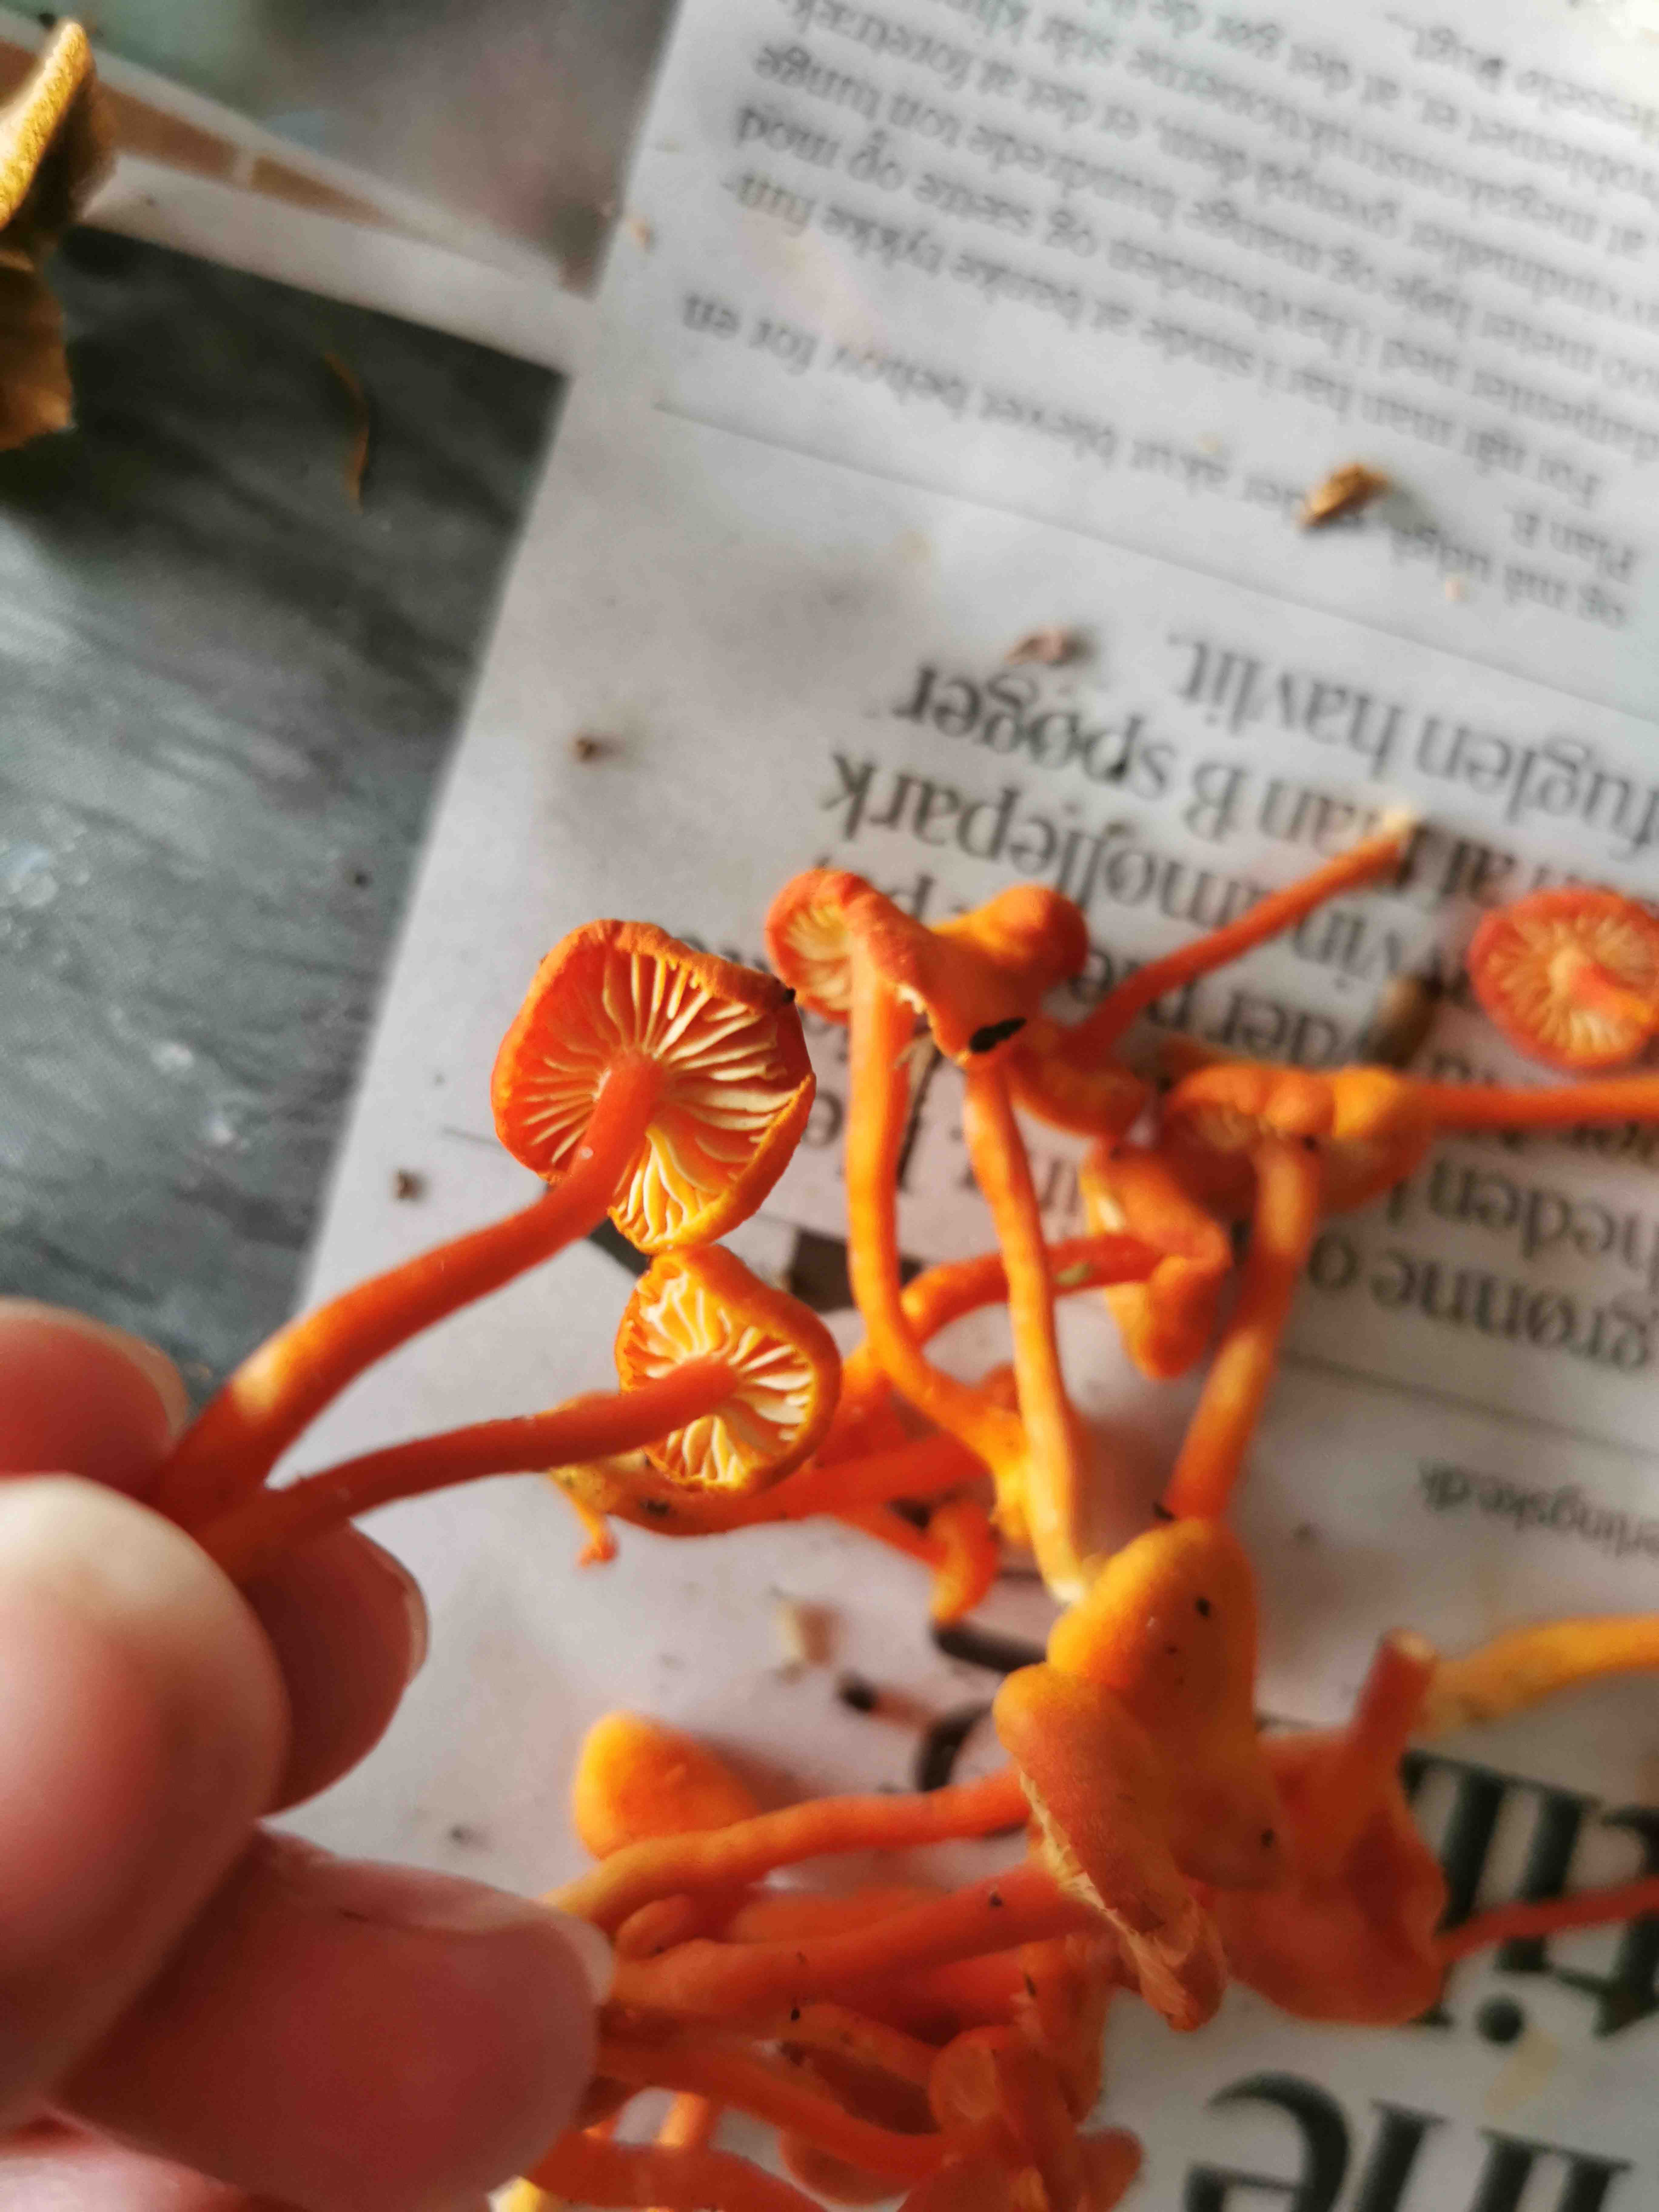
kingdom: Fungi
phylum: Basidiomycota
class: Agaricomycetes
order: Agaricales
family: Hygrophoraceae
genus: Hygrocybe
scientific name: Hygrocybe miniata
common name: mønje-vokshat
